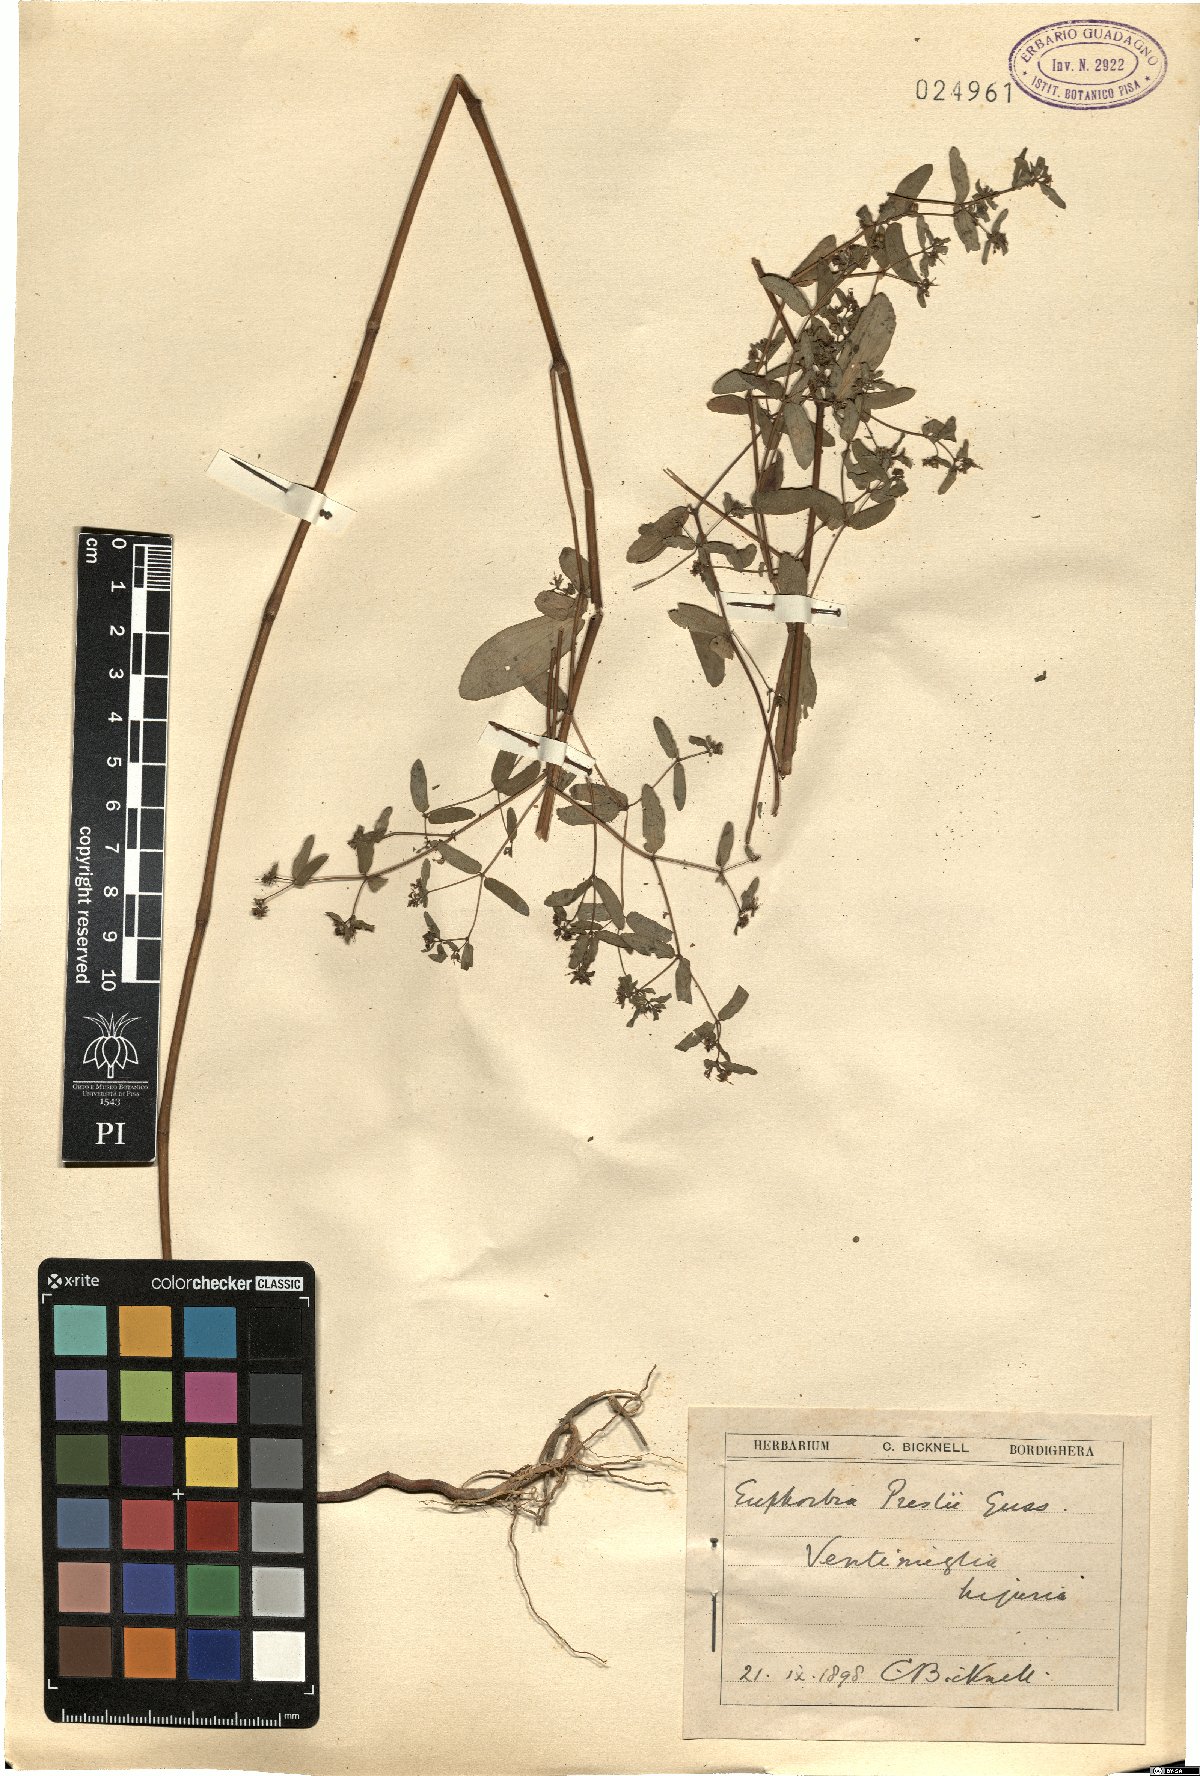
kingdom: Plantae
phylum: Tracheophyta
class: Magnoliopsida
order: Malpighiales
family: Euphorbiaceae
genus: Euphorbia
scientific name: Euphorbia nutans
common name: Eyebane
